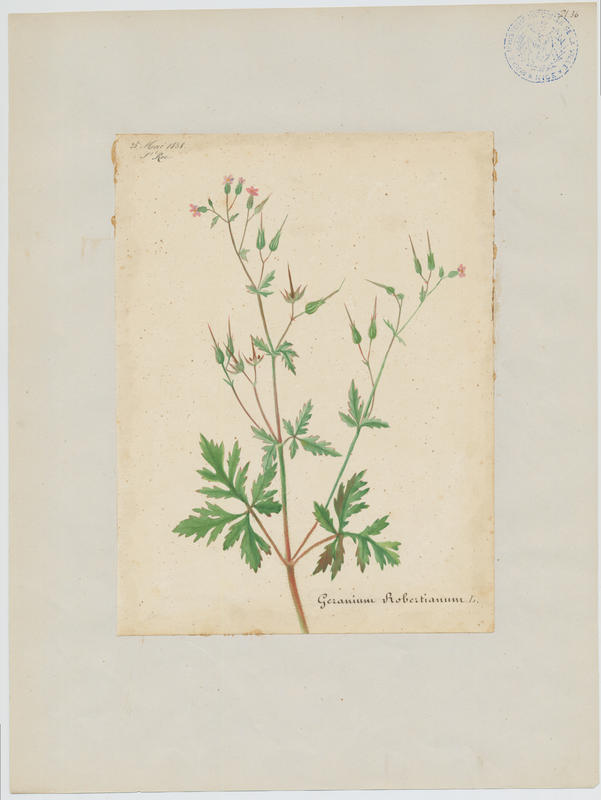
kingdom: Plantae
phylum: Tracheophyta
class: Magnoliopsida
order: Geraniales
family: Geraniaceae
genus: Geranium
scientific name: Geranium robertianum
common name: Herb-robert
